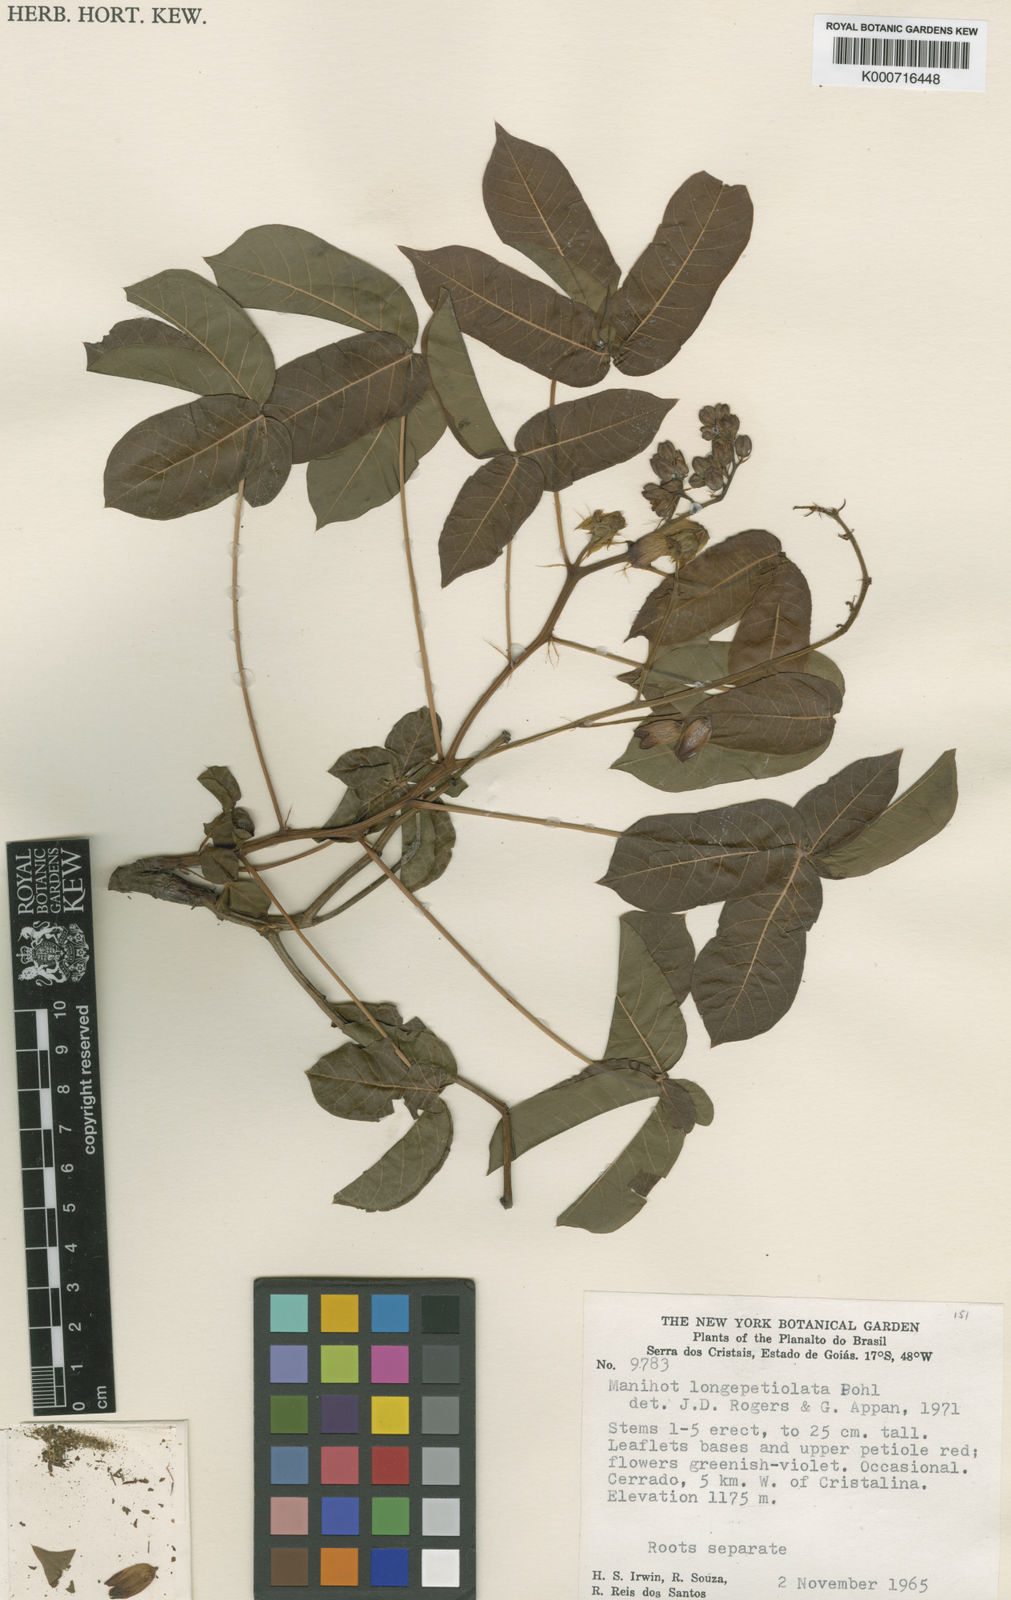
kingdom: Plantae
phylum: Tracheophyta
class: Magnoliopsida
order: Malpighiales
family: Euphorbiaceae
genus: Manihot
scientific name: Manihot longepetiolata
